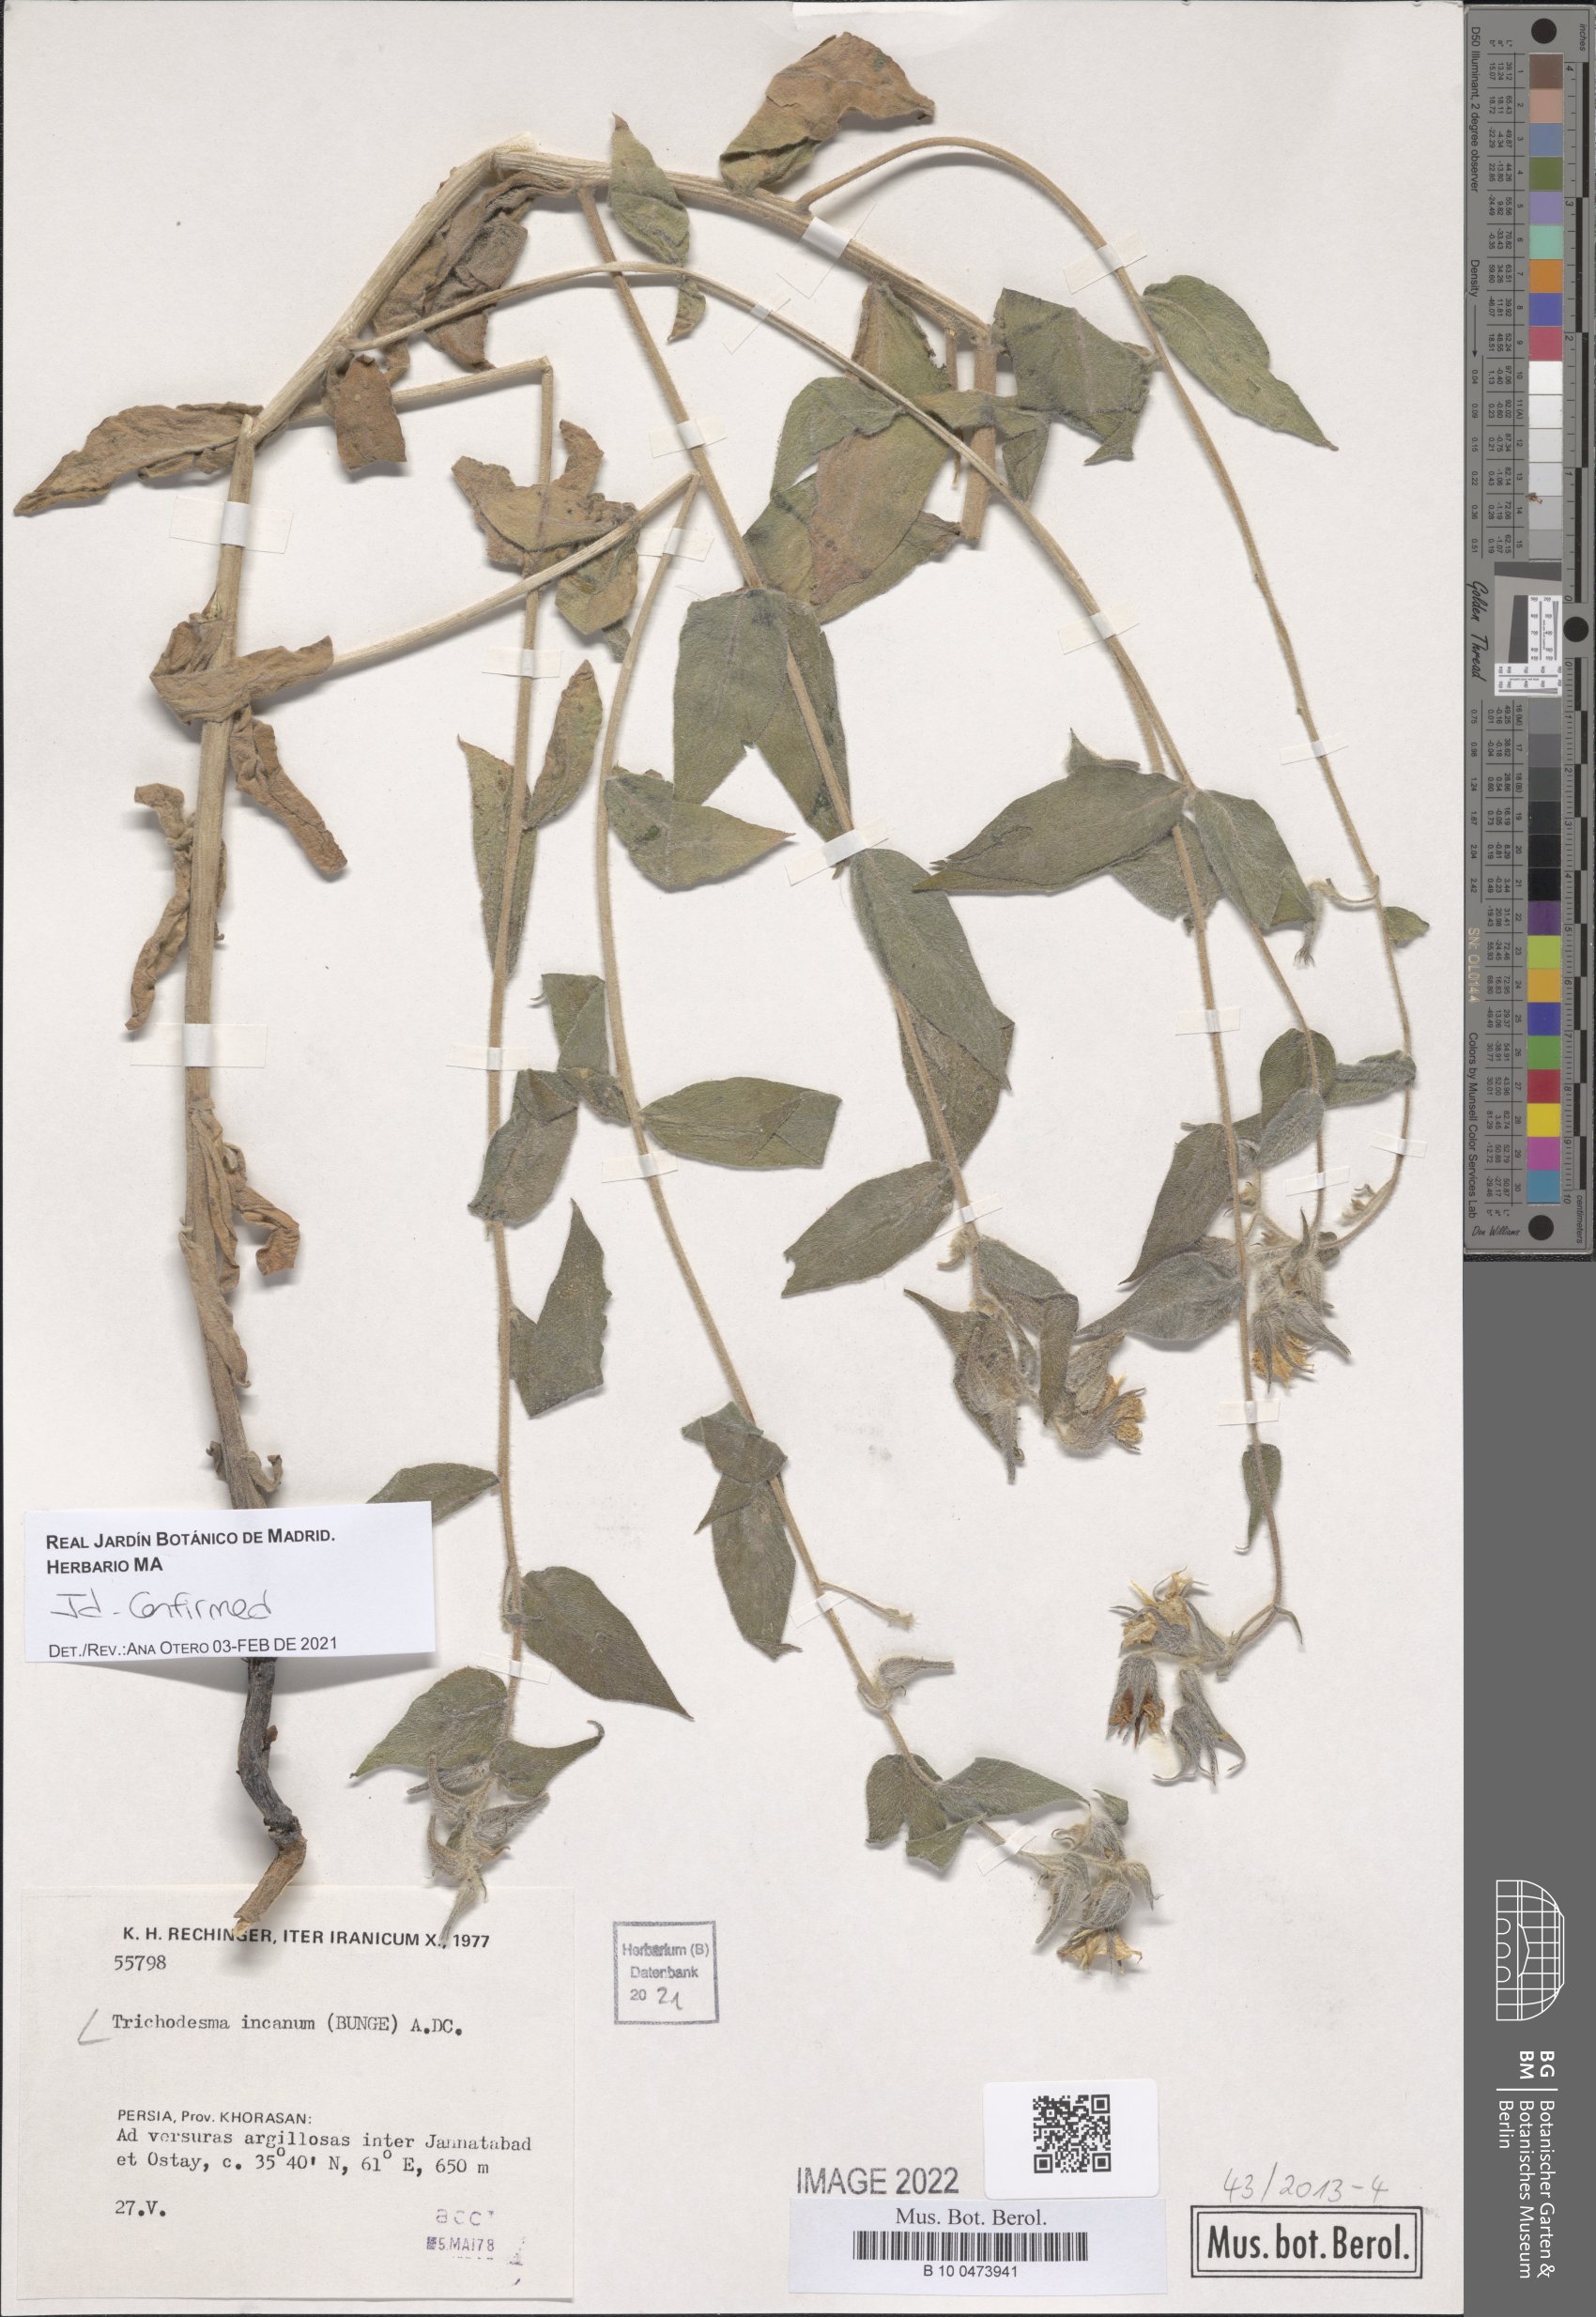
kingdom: Plantae
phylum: Tracheophyta
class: Magnoliopsida
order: Boraginales
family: Boraginaceae
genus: Trichodesma
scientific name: Trichodesma incanum
